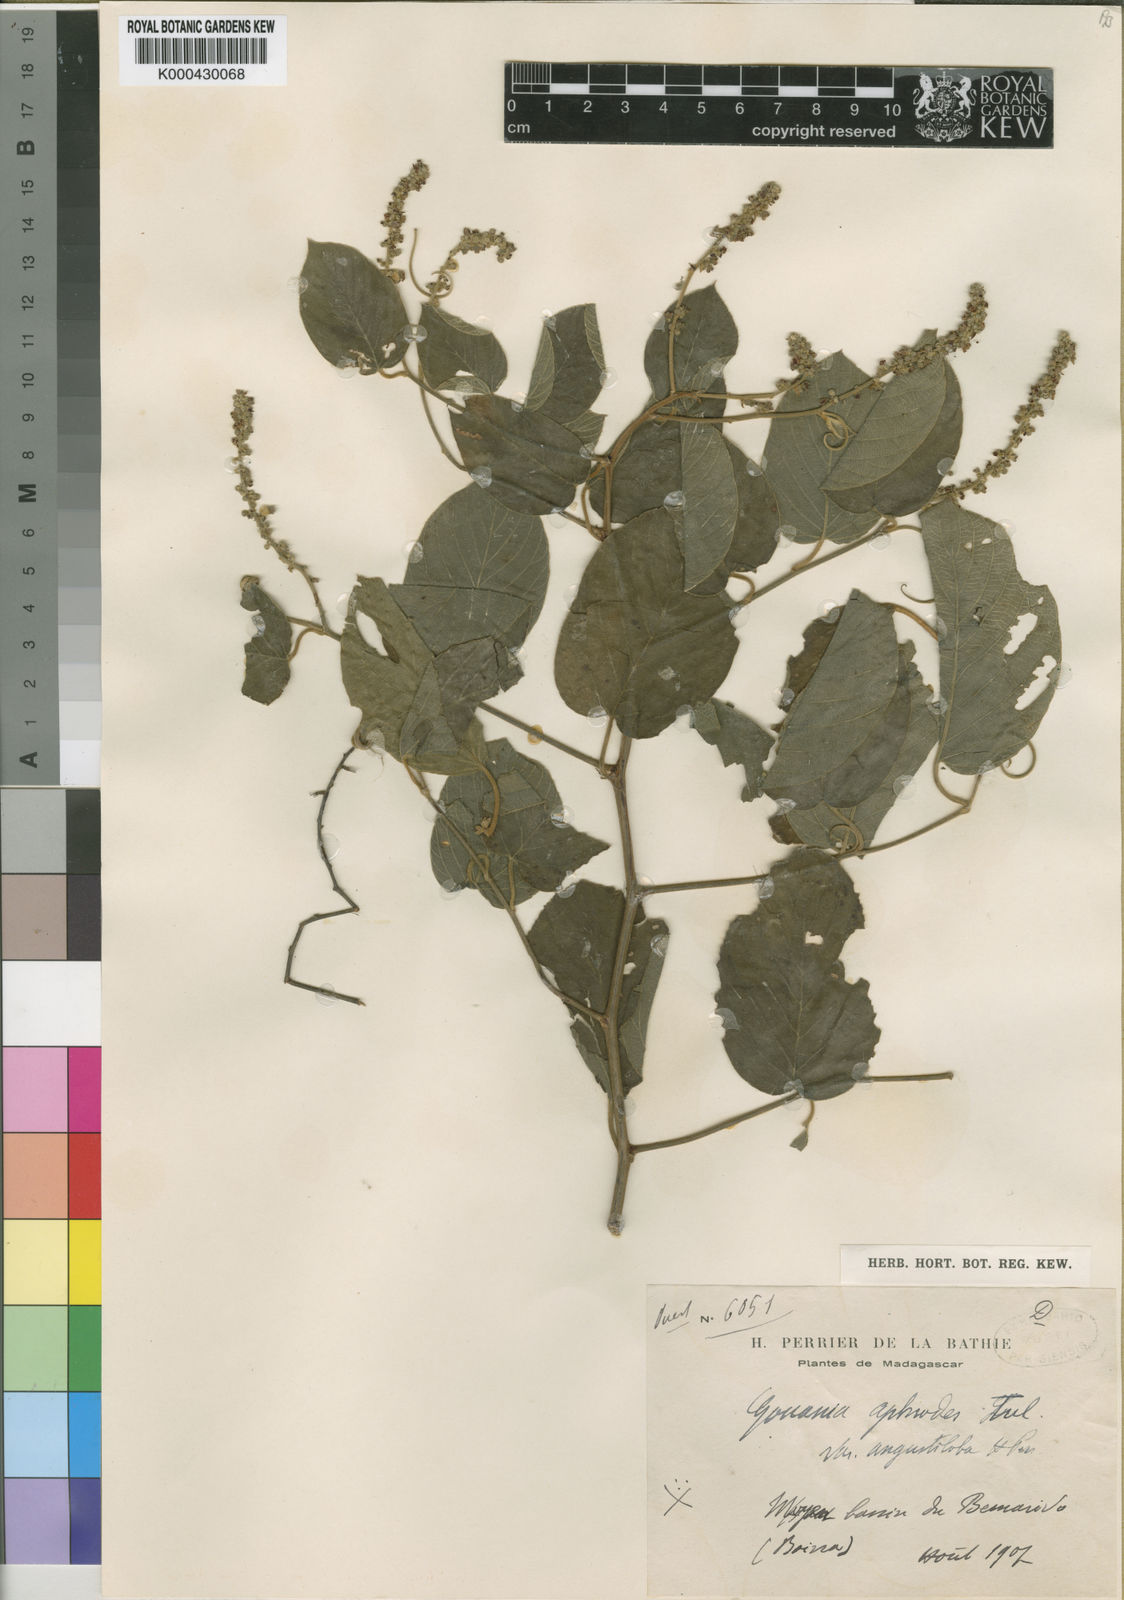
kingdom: Plantae
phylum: Tracheophyta
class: Magnoliopsida
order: Rosales
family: Rhamnaceae
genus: Gouania
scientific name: Gouania mauritiana
